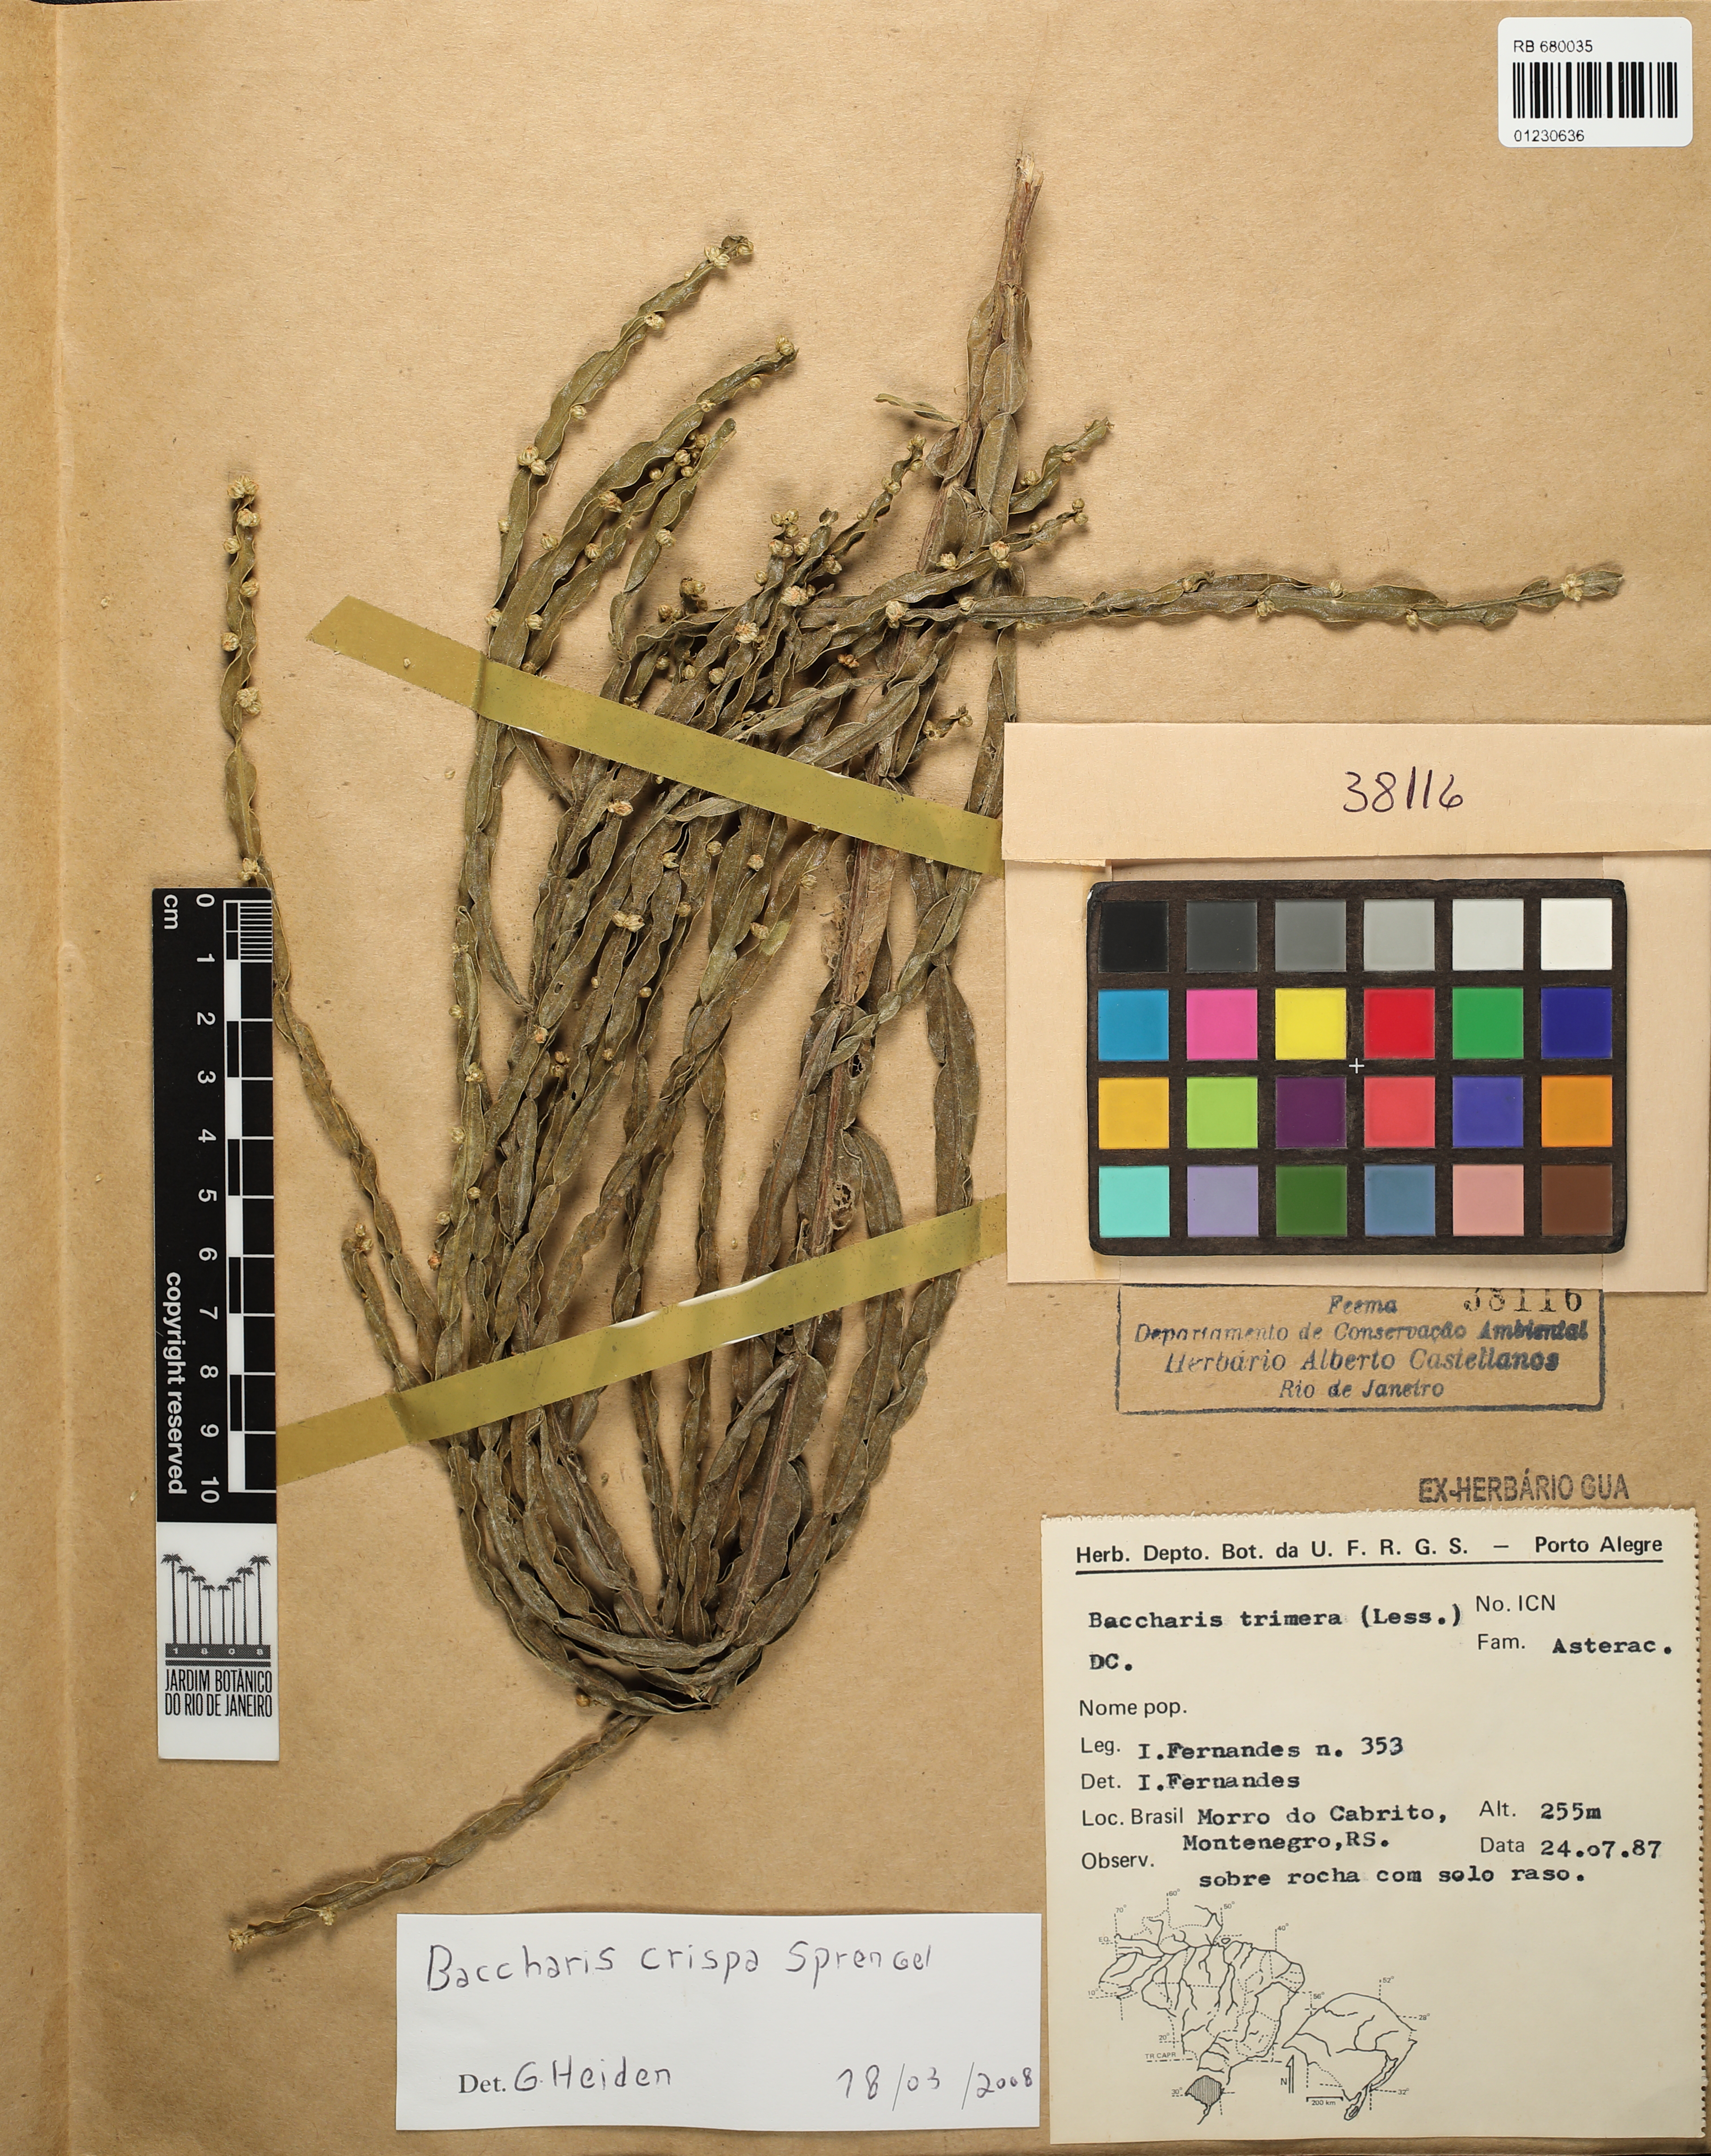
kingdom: Plantae
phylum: Tracheophyta
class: Magnoliopsida
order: Asterales
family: Asteraceae
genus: Baccharis
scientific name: Baccharis crispa
